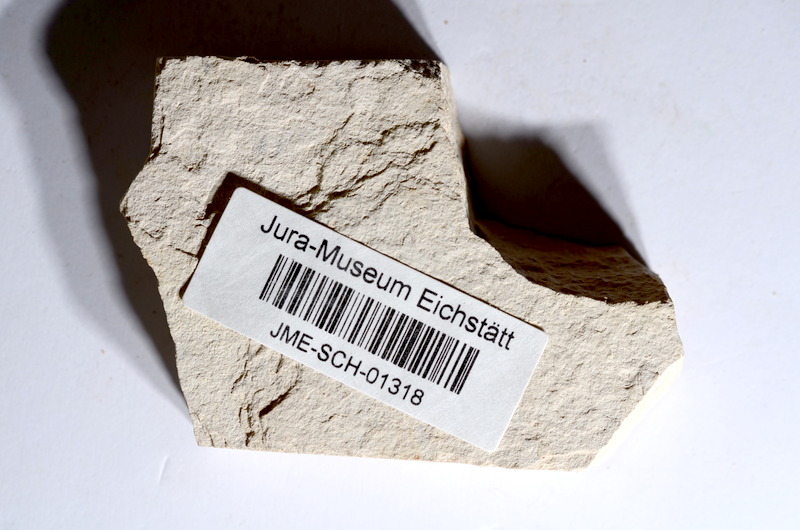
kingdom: Animalia
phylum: Chordata
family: Ascalaboidae
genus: Tharsis
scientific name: Tharsis dubius
